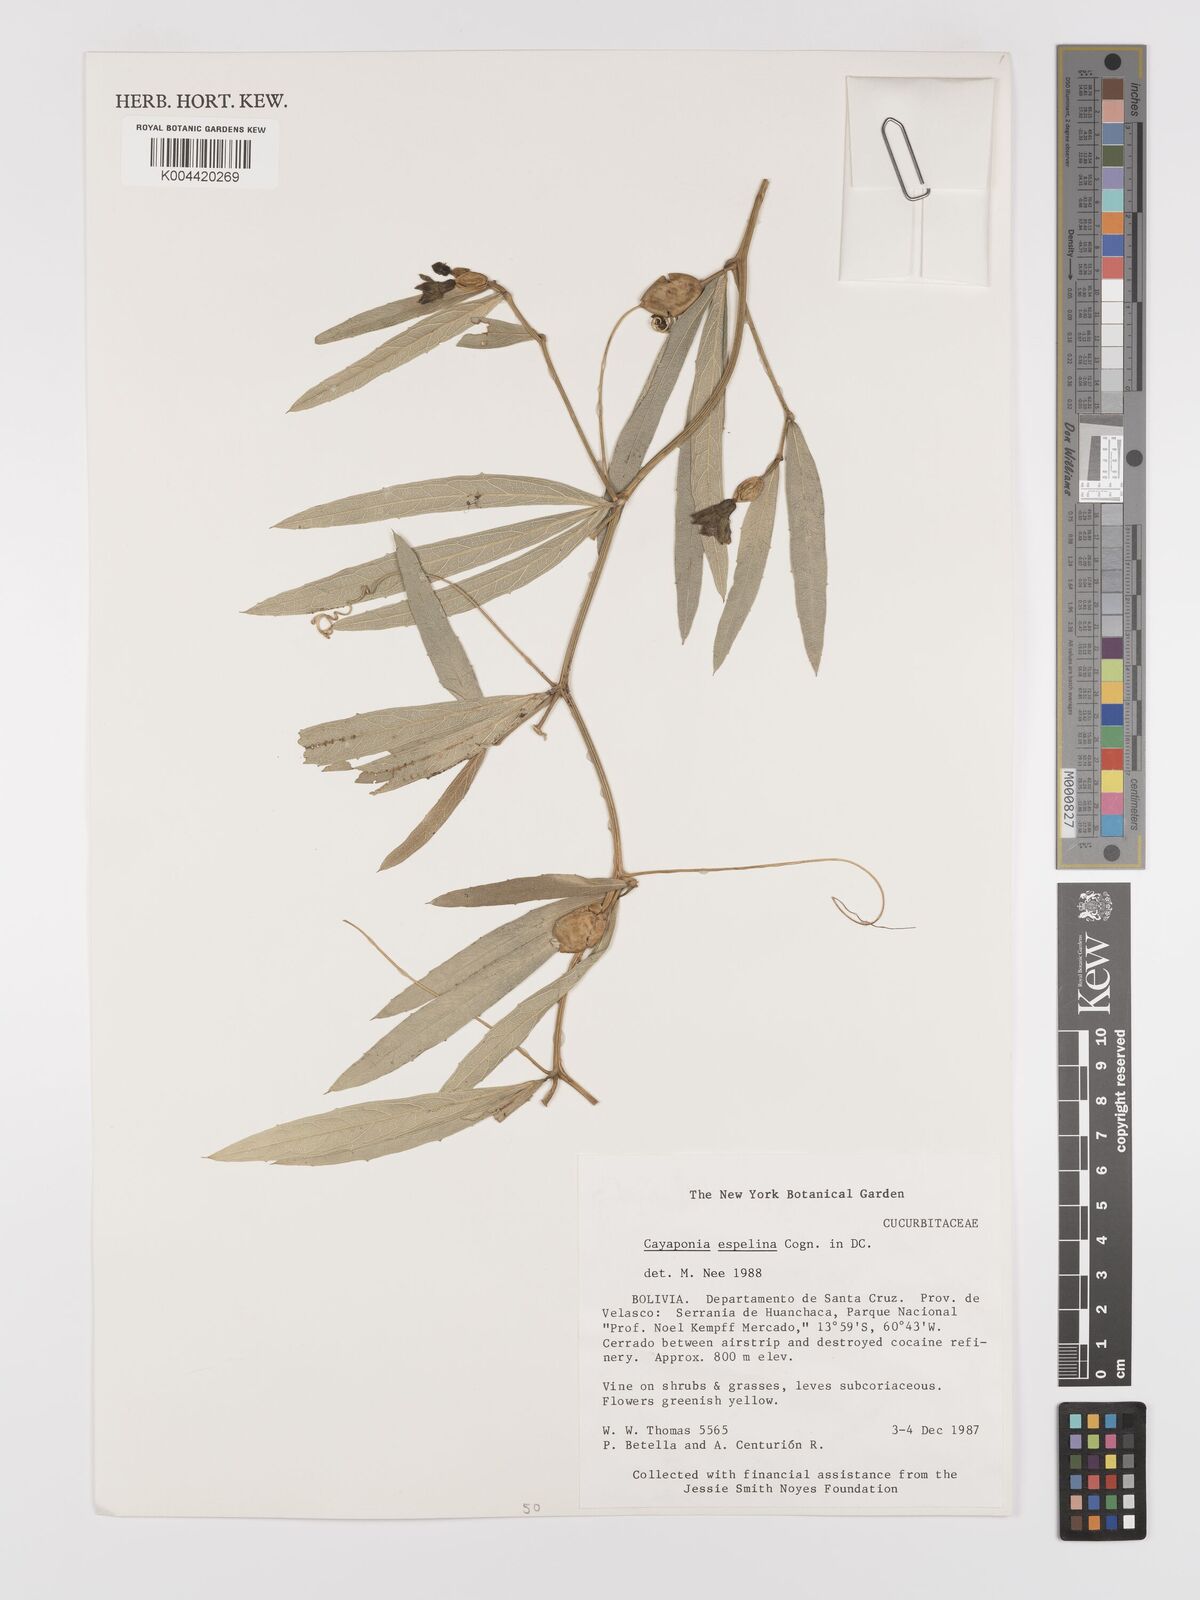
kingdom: Plantae
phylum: Tracheophyta
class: Magnoliopsida
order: Cucurbitales
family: Cucurbitaceae
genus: Cayaponia
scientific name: Cayaponia espelina
